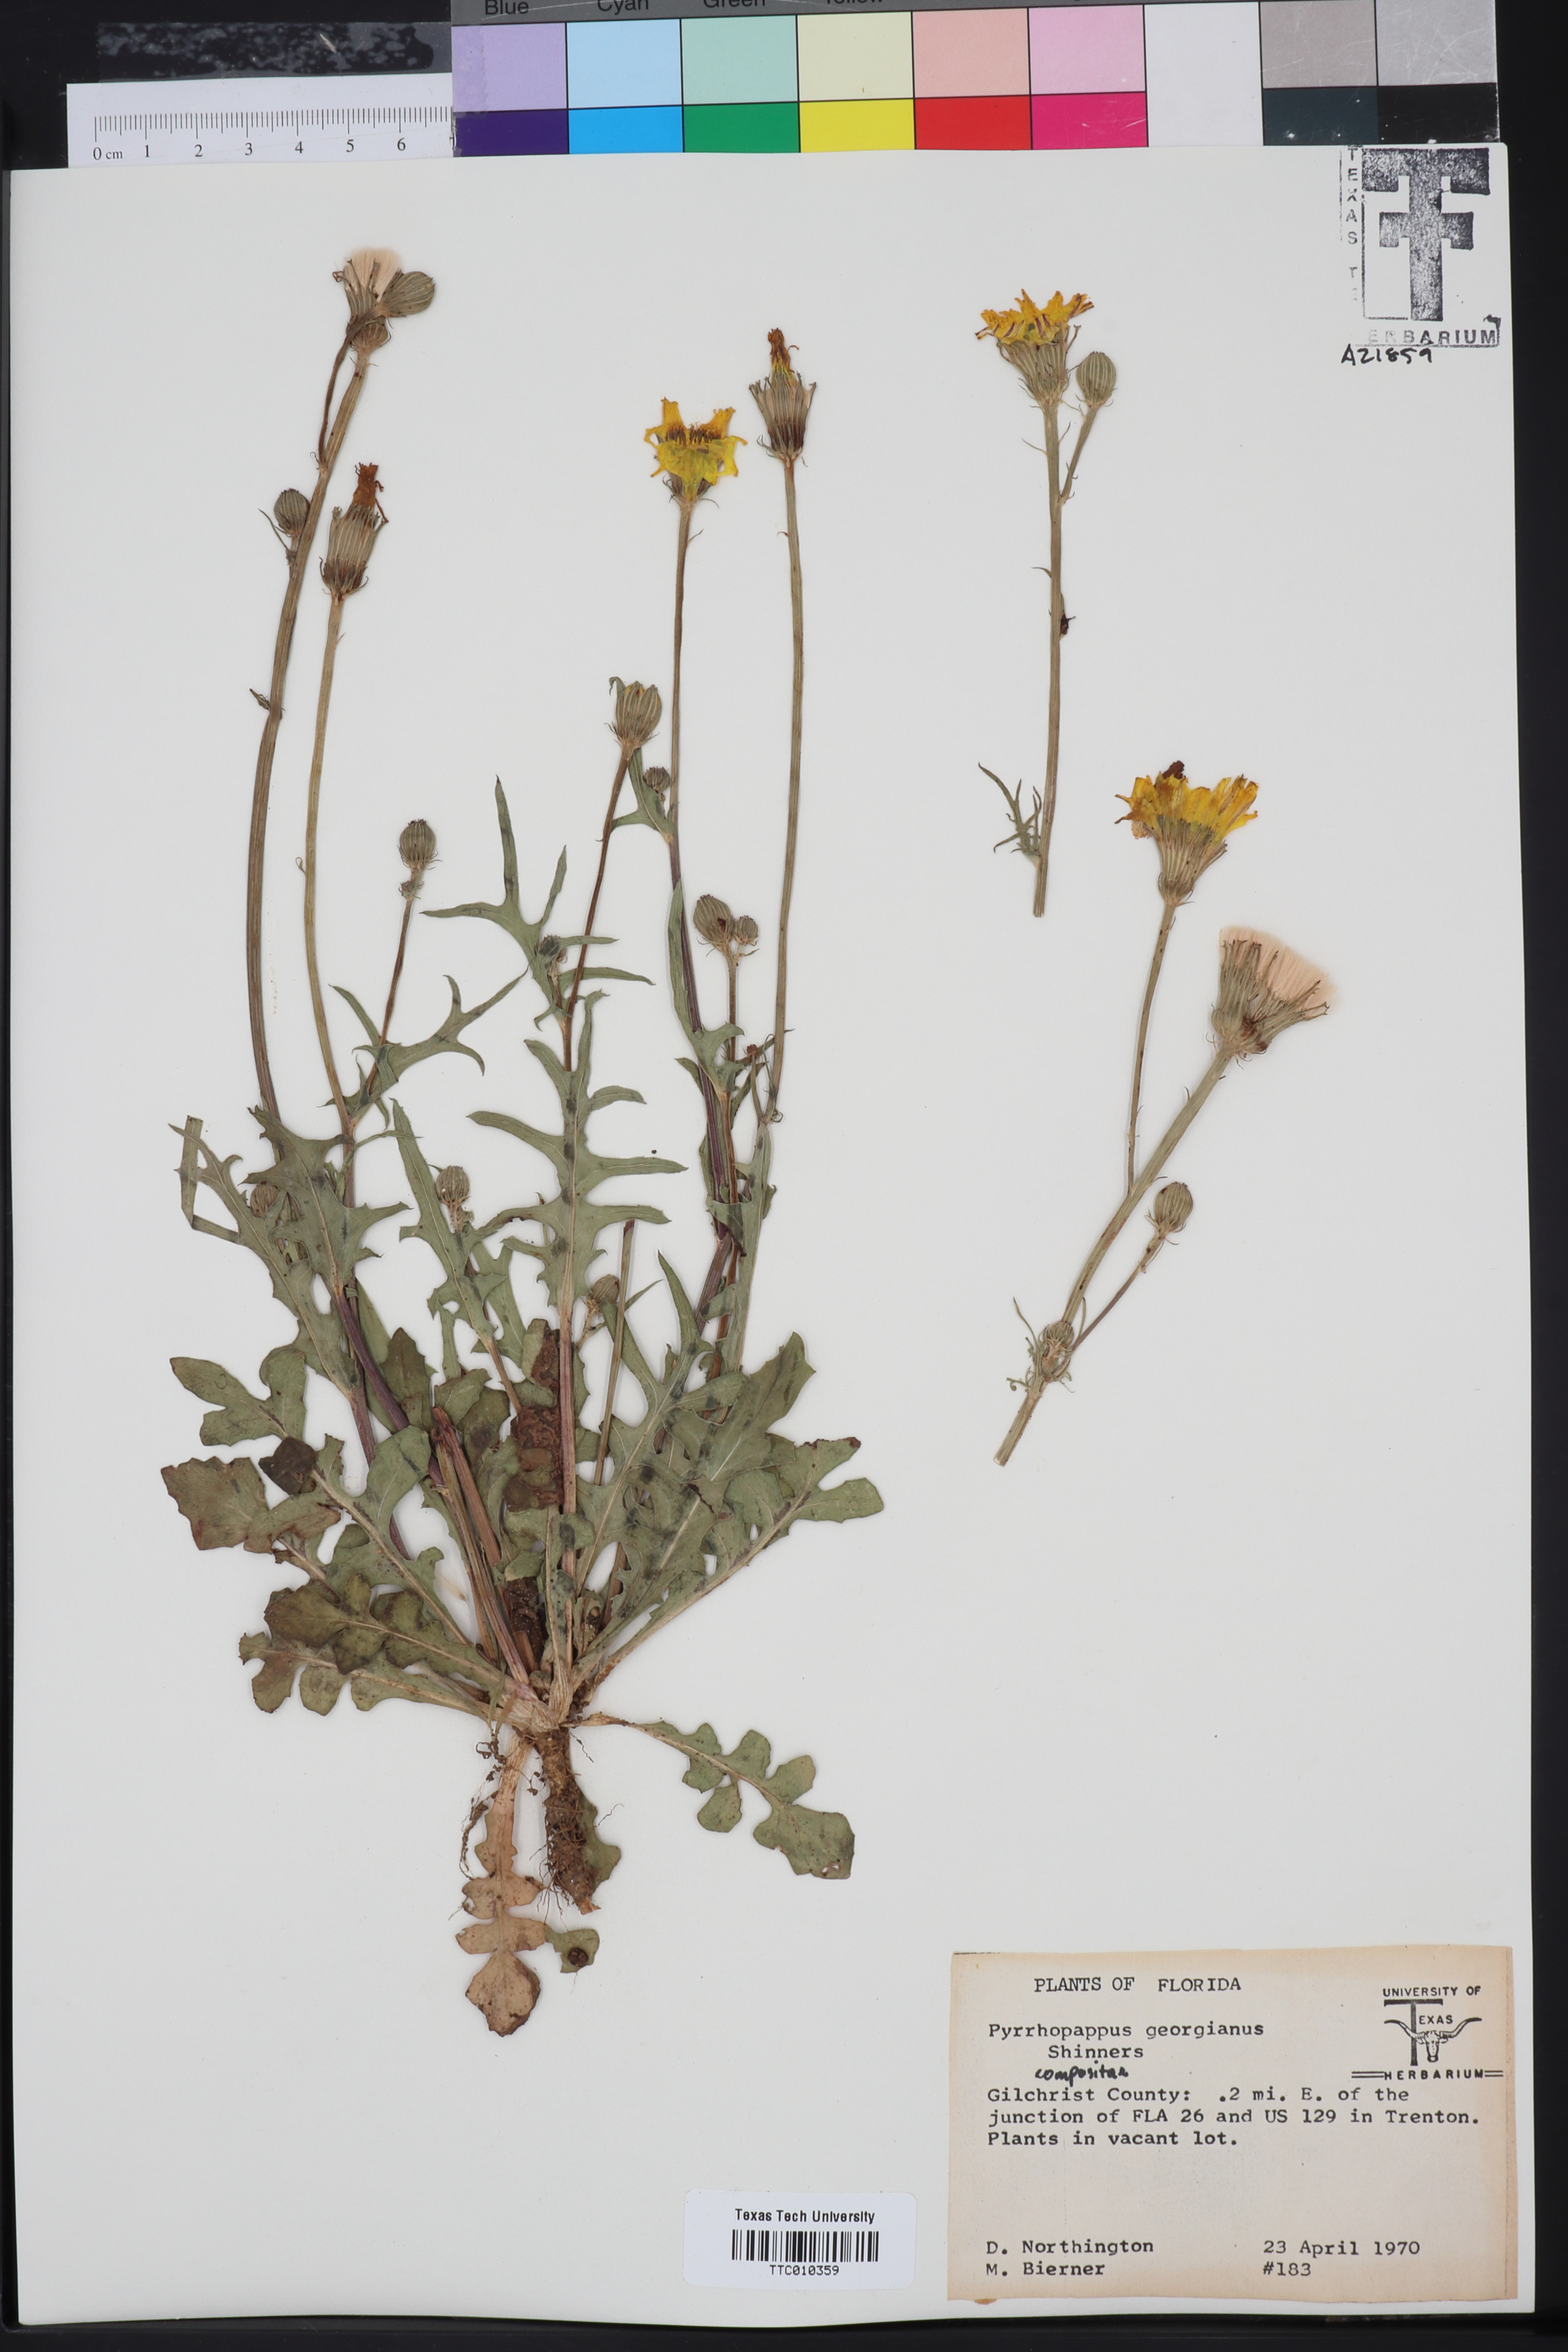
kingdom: Plantae
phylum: Tracheophyta
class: Magnoliopsida
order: Asterales
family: Asteraceae
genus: Pyrrhopappus
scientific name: Pyrrhopappus carolinianus
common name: Carolina desert-chicory
